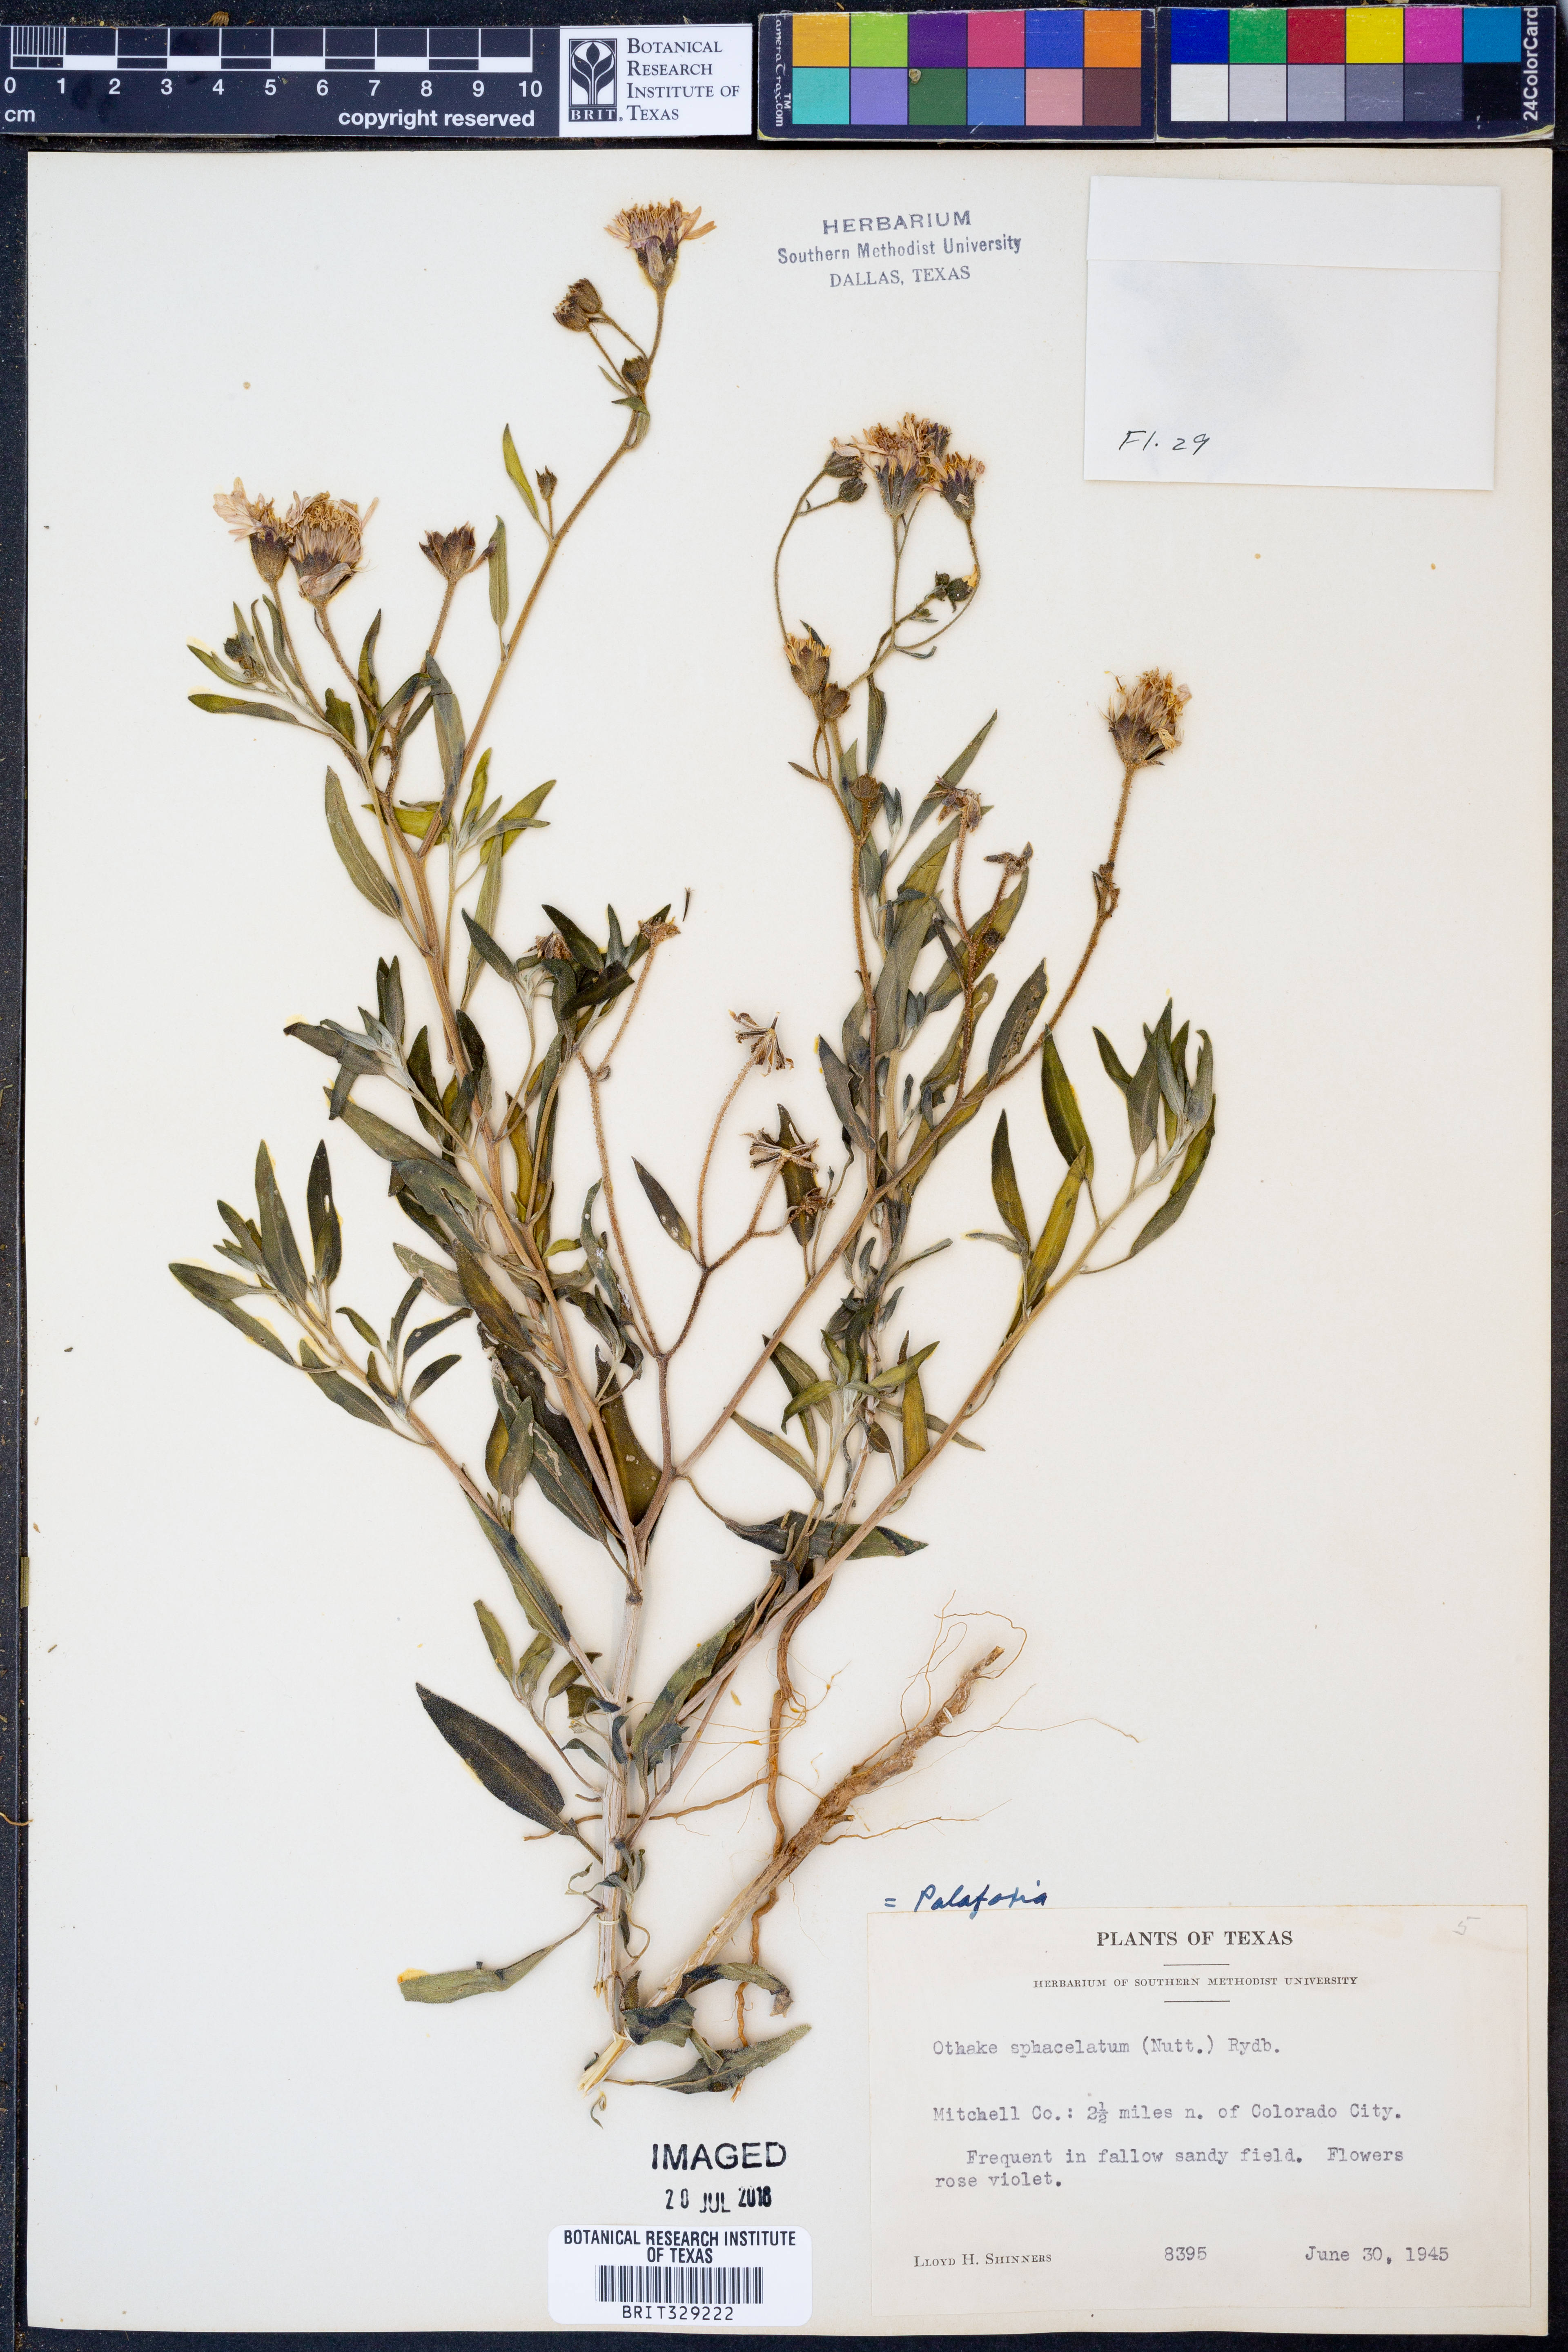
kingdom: Plantae
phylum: Tracheophyta
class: Magnoliopsida
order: Asterales
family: Asteraceae
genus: Palafoxia
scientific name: Palafoxia sphacelata
